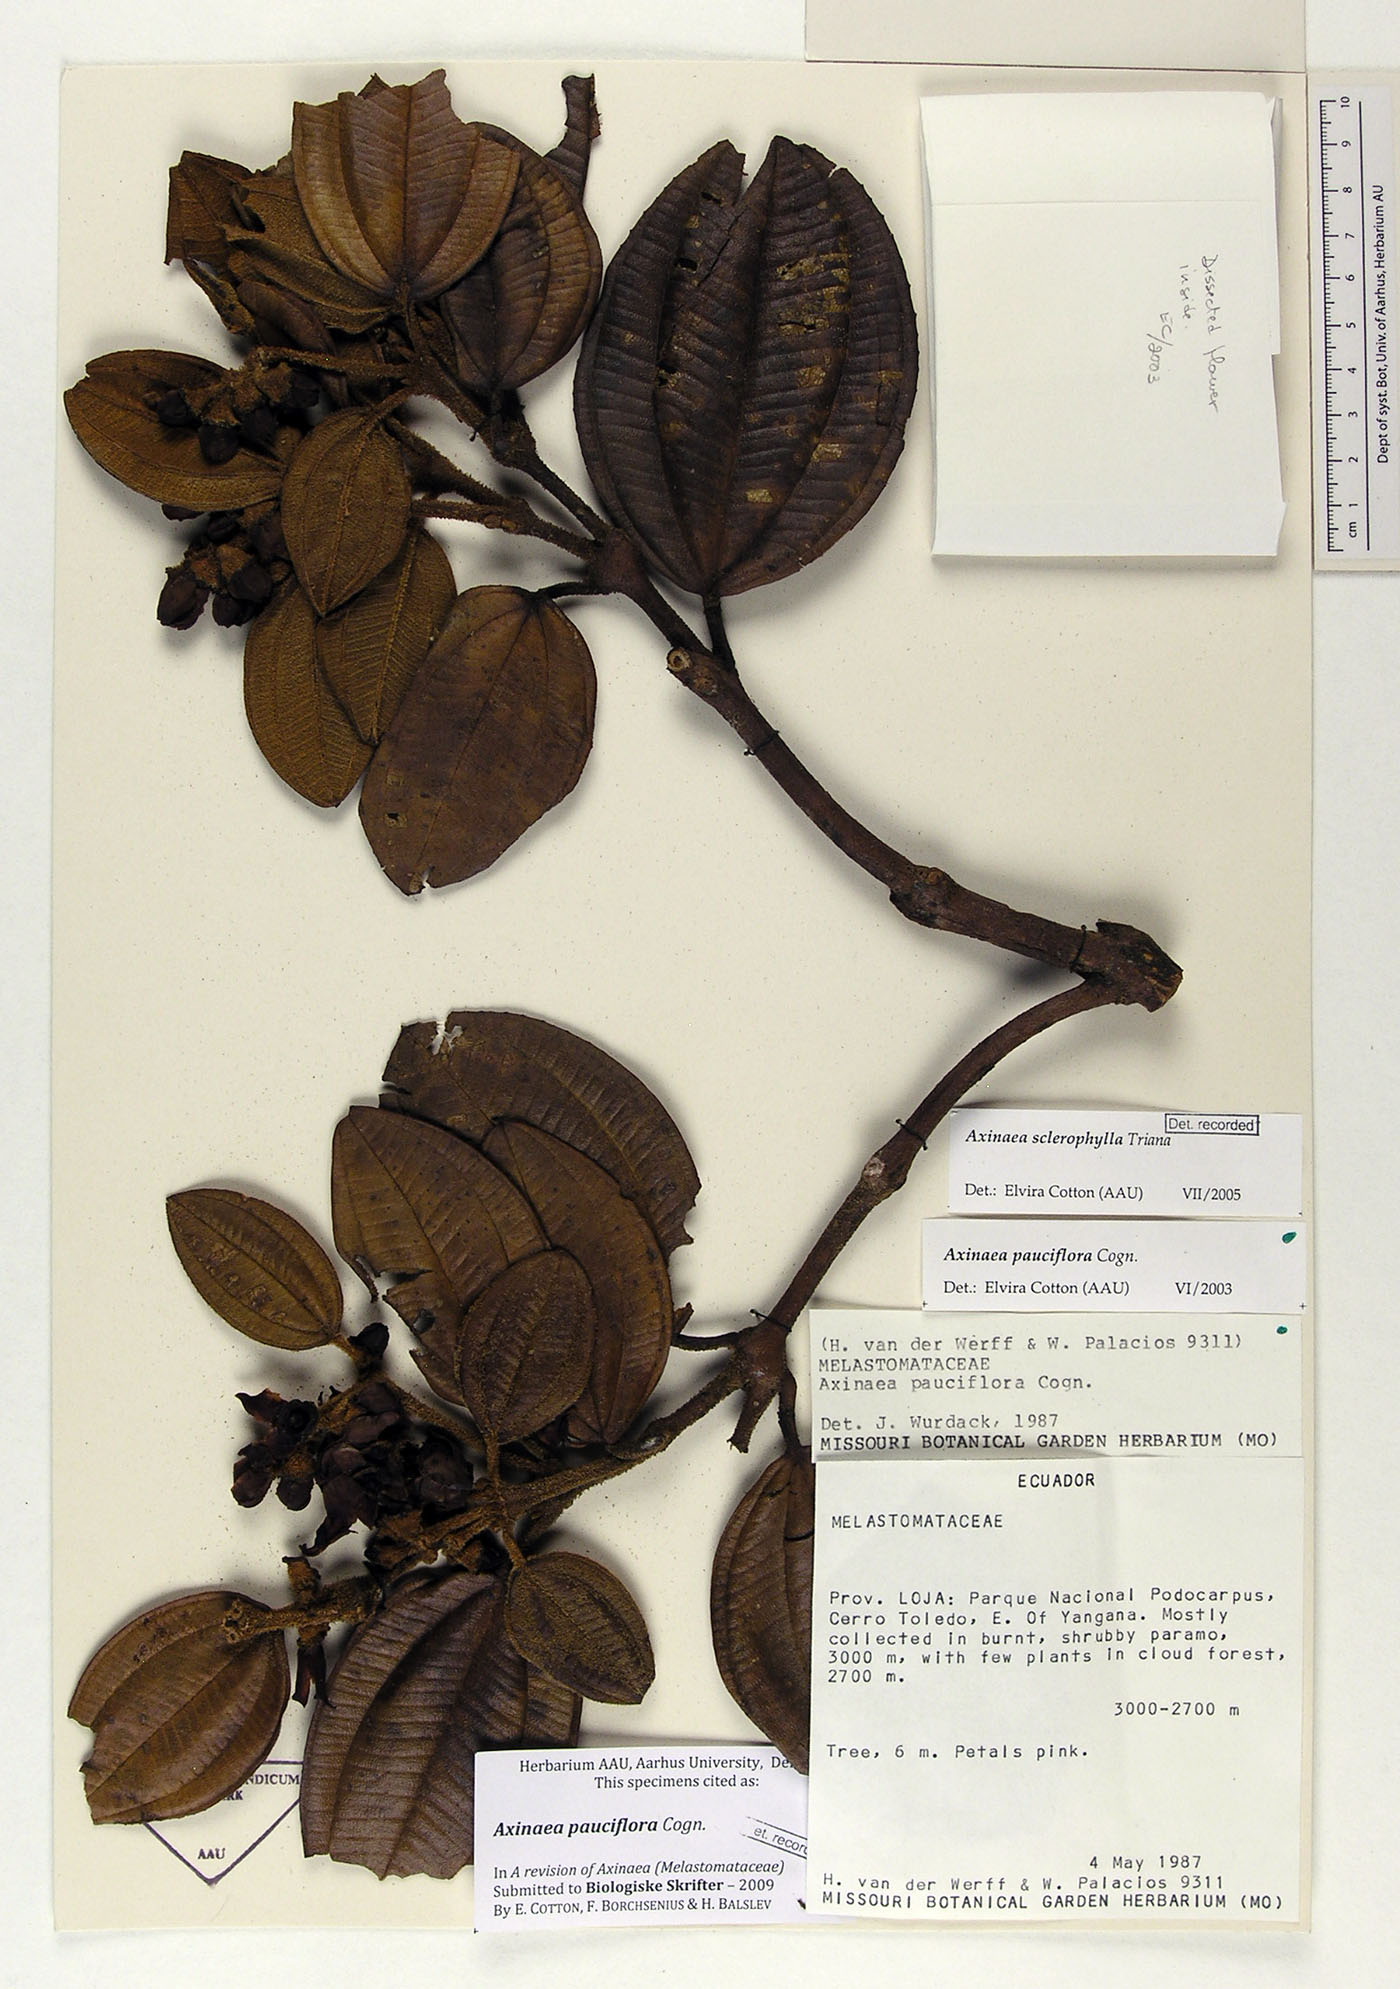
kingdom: Plantae
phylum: Tracheophyta
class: Magnoliopsida
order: Myrtales
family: Melastomataceae
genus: Axinaea
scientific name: Axinaea pauciflora
